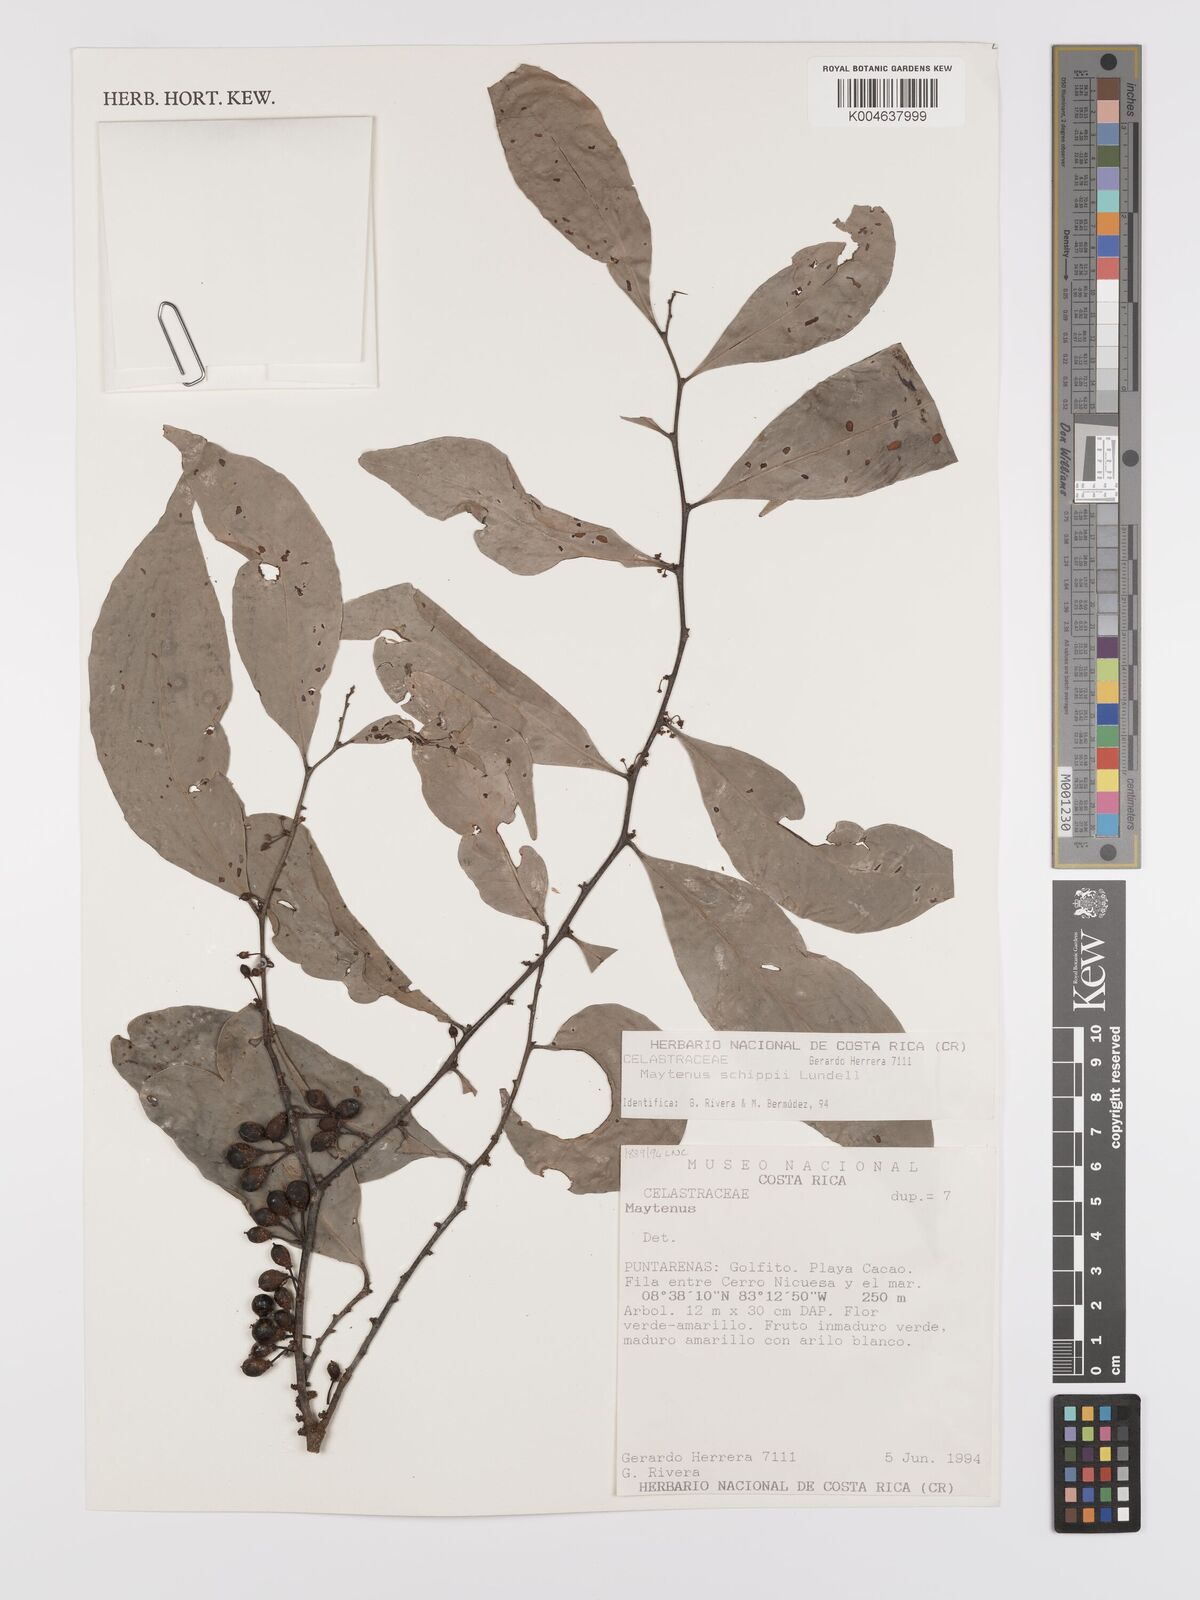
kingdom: Plantae
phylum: Tracheophyta
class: Magnoliopsida
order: Celastrales
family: Celastraceae
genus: Monteverdia
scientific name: Monteverdia schippii
